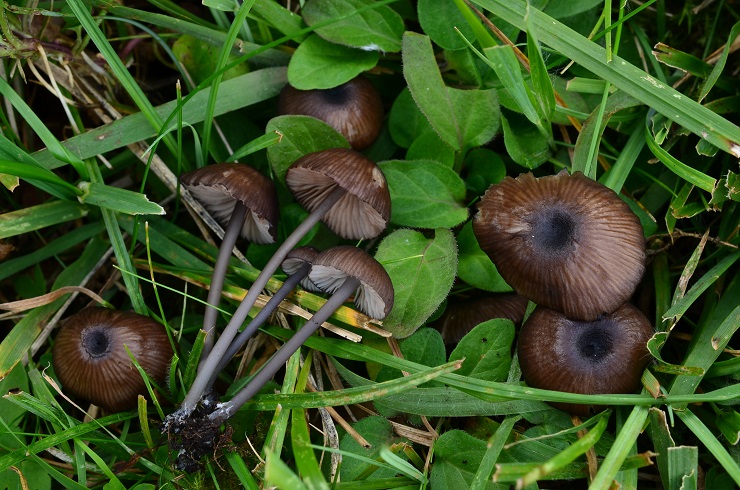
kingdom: Fungi
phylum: Basidiomycota
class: Agaricomycetes
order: Agaricales
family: Entolomataceae
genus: Entoloma
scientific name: Entoloma brunneoserrulatum
